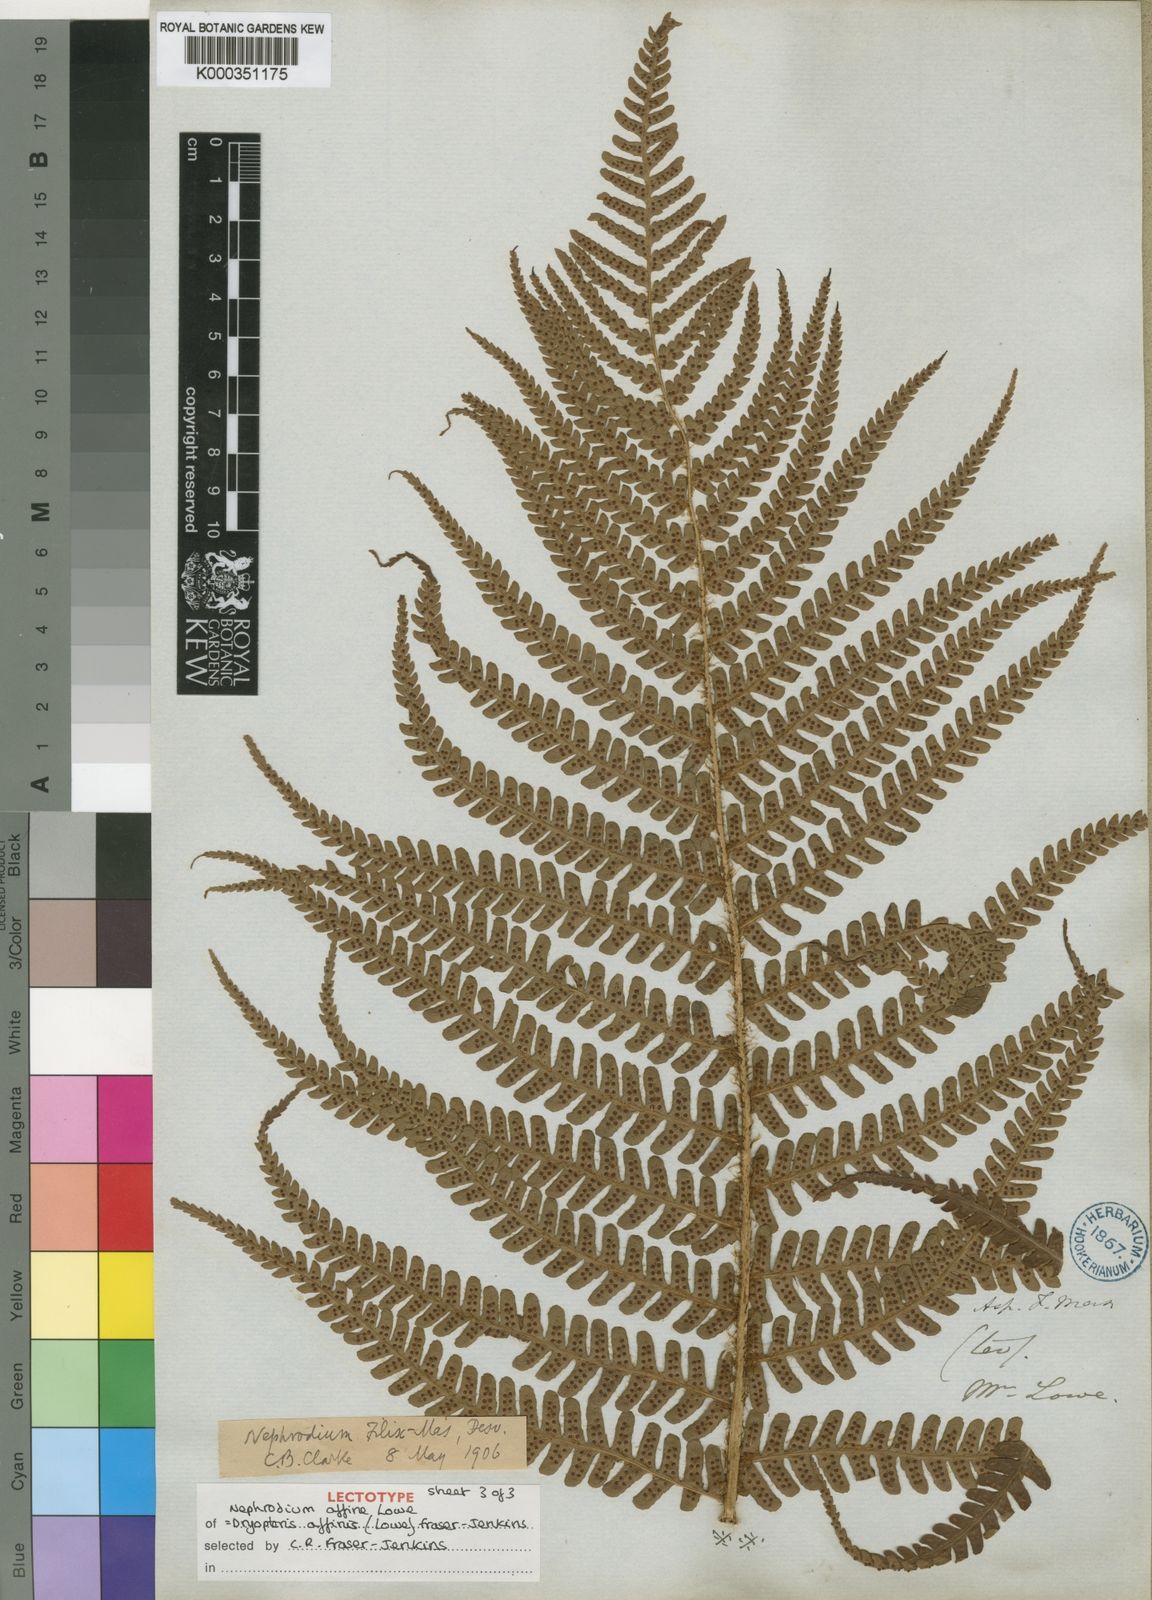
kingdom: Plantae
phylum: Tracheophyta
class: Polypodiopsida
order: Polypodiales
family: Dryopteridaceae
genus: Dryopteris
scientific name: Dryopteris affinis
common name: Scaly male fern
